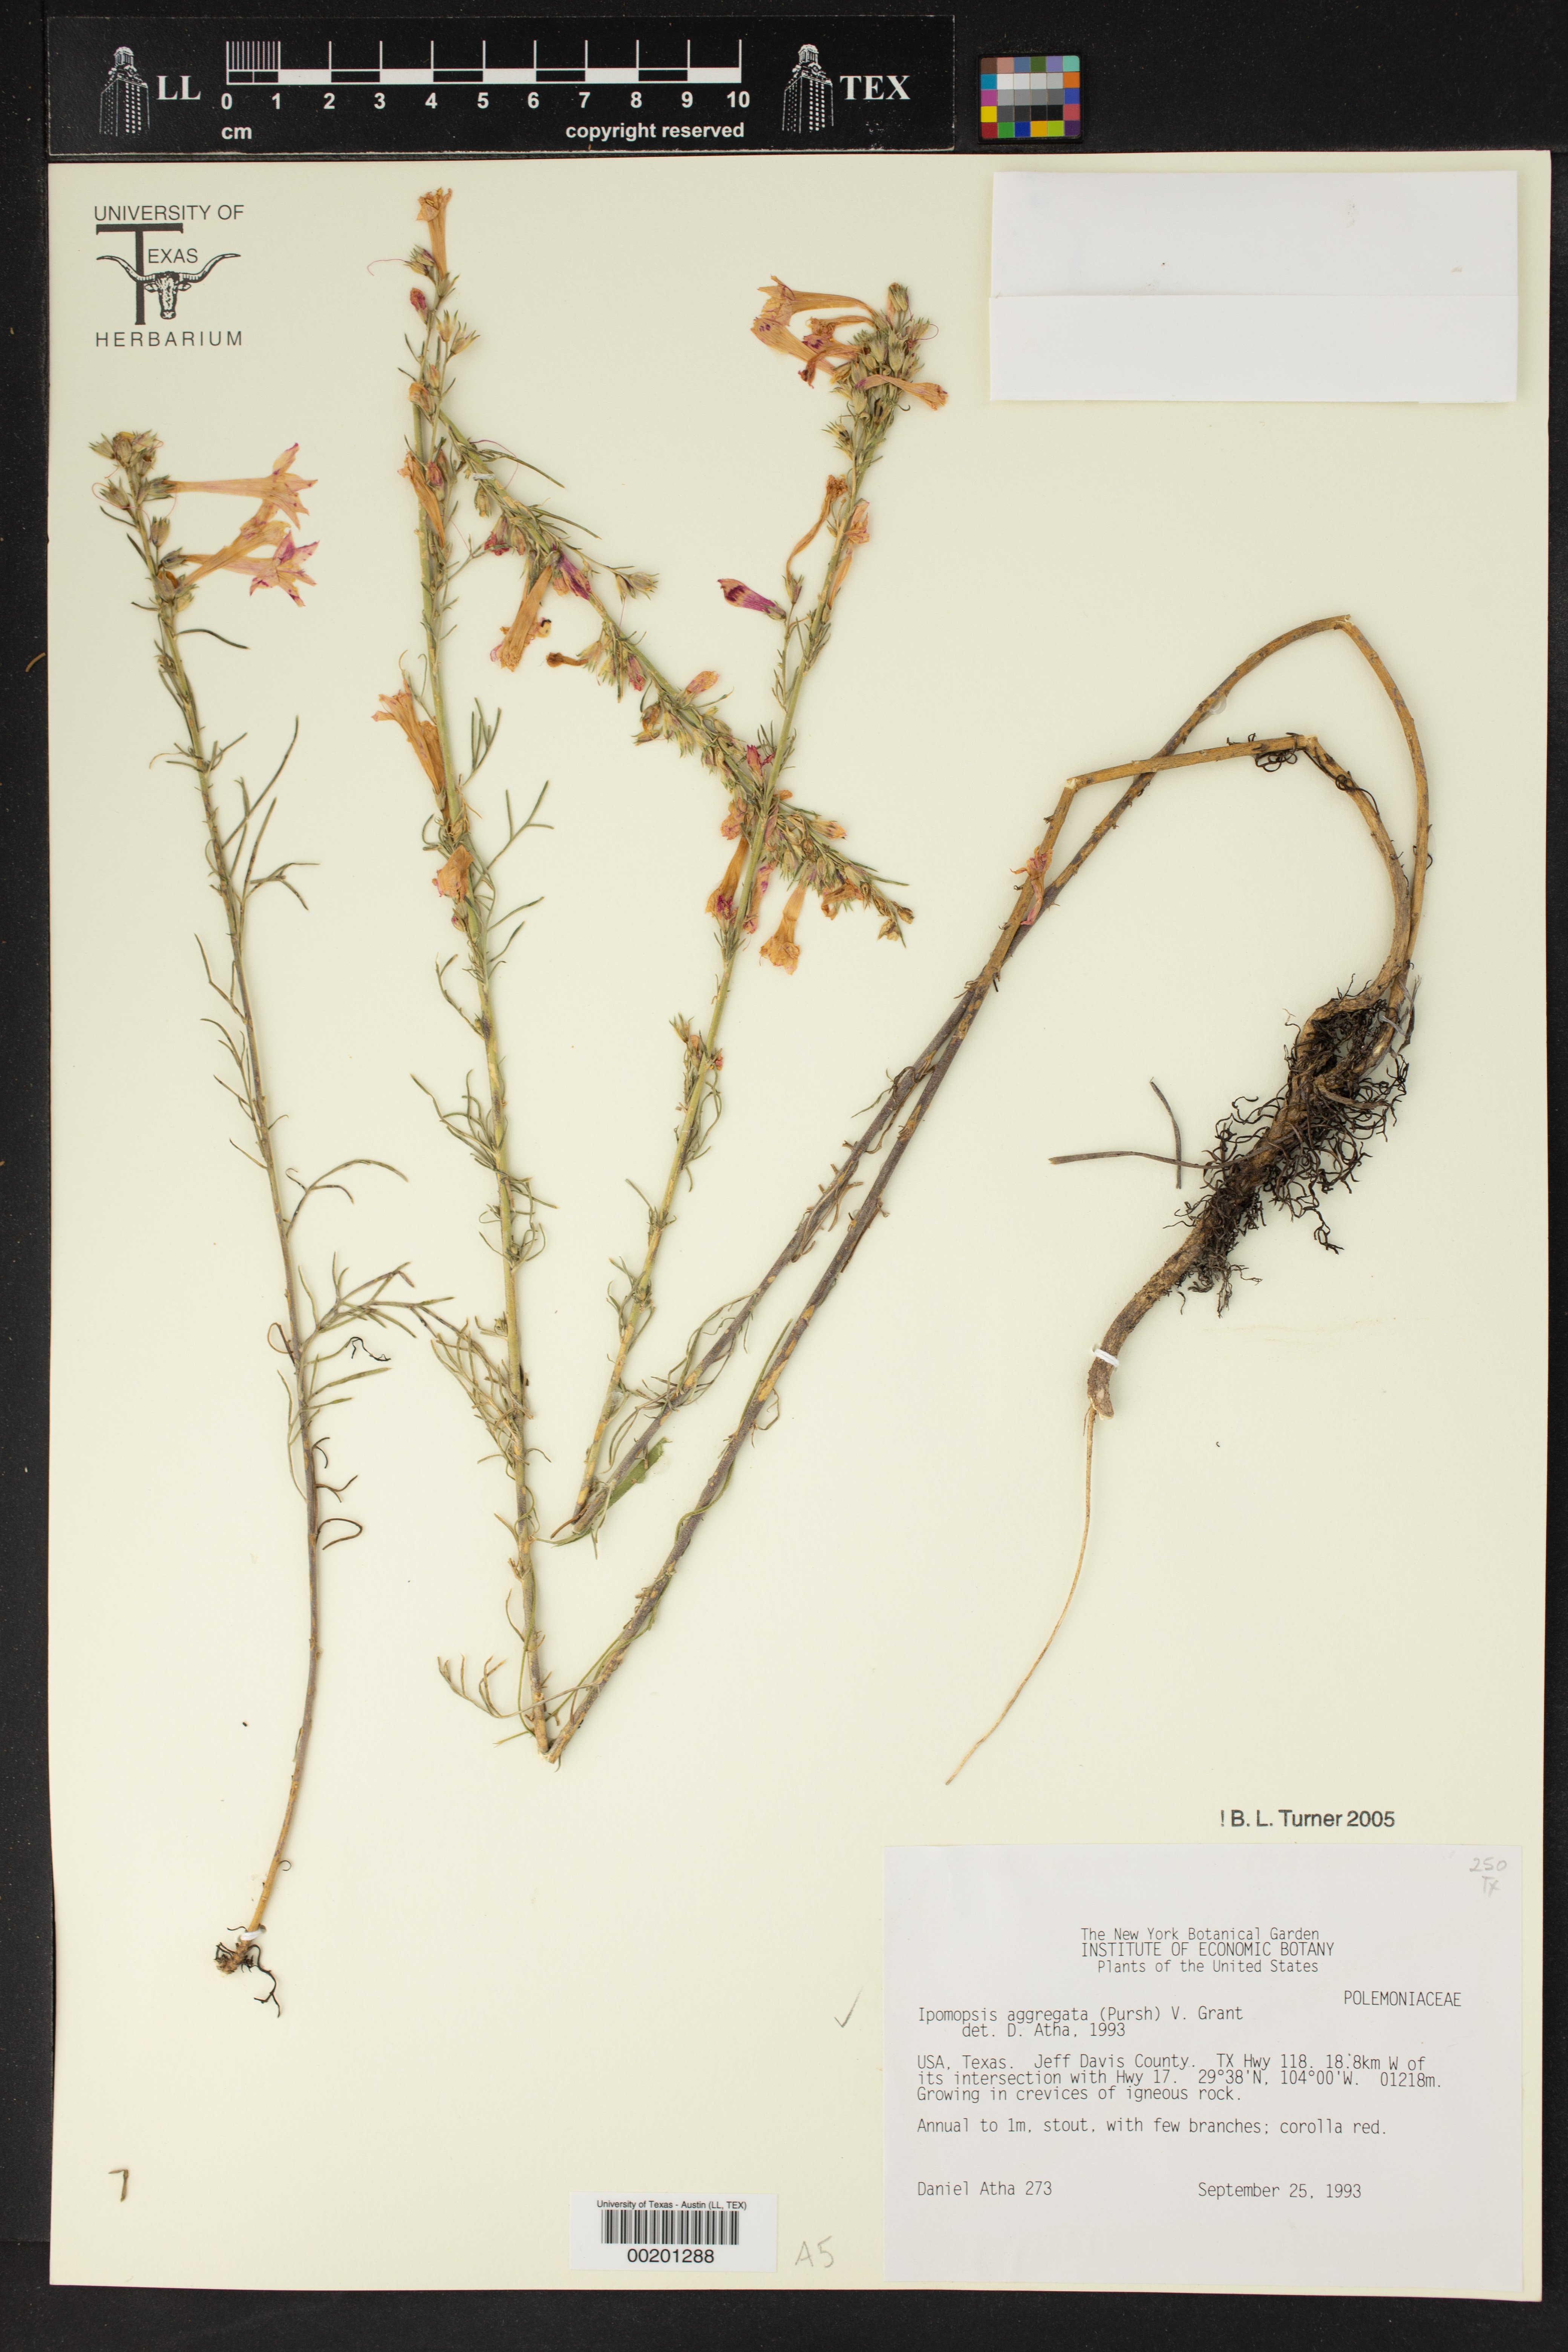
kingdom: Plantae
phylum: Tracheophyta
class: Magnoliopsida
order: Ericales
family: Polemoniaceae
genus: Ipomopsis
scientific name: Ipomopsis aggregata
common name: Scarlet gilia
